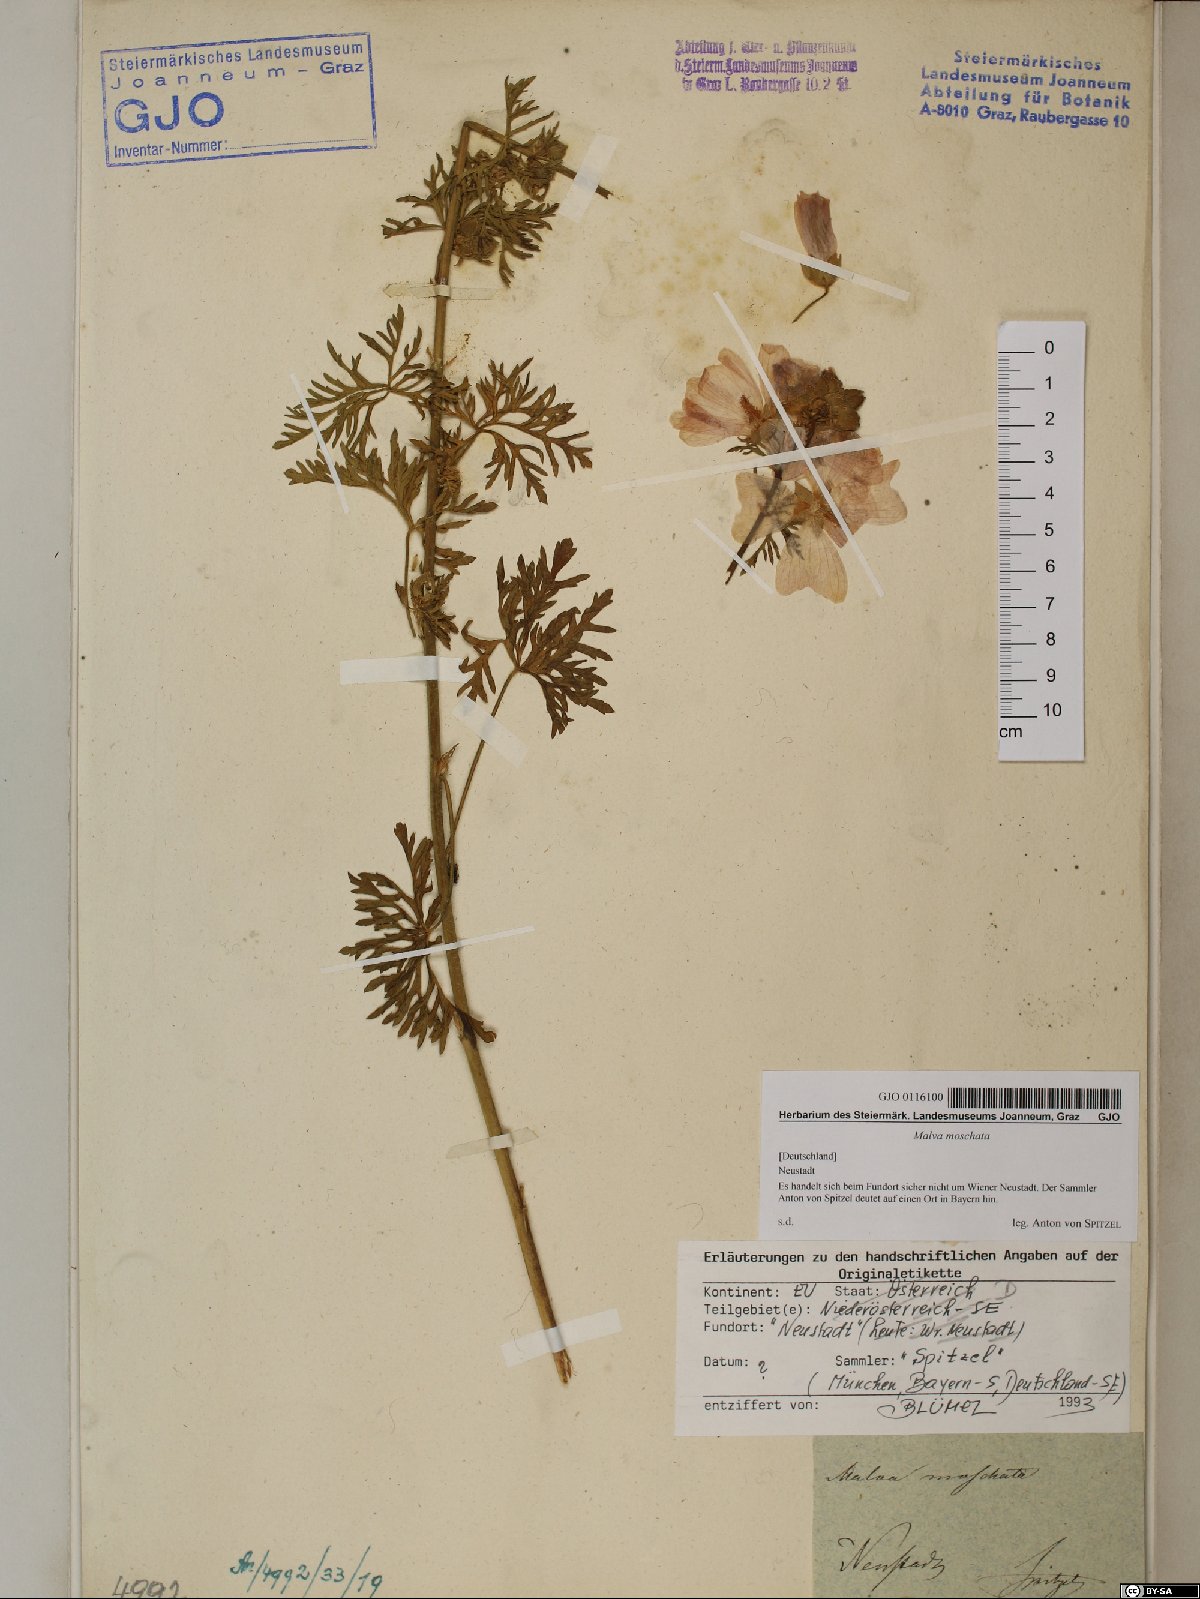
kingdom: Plantae
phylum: Tracheophyta
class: Magnoliopsida
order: Malvales
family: Malvaceae
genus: Malva
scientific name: Malva moschata
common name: Musk mallow
